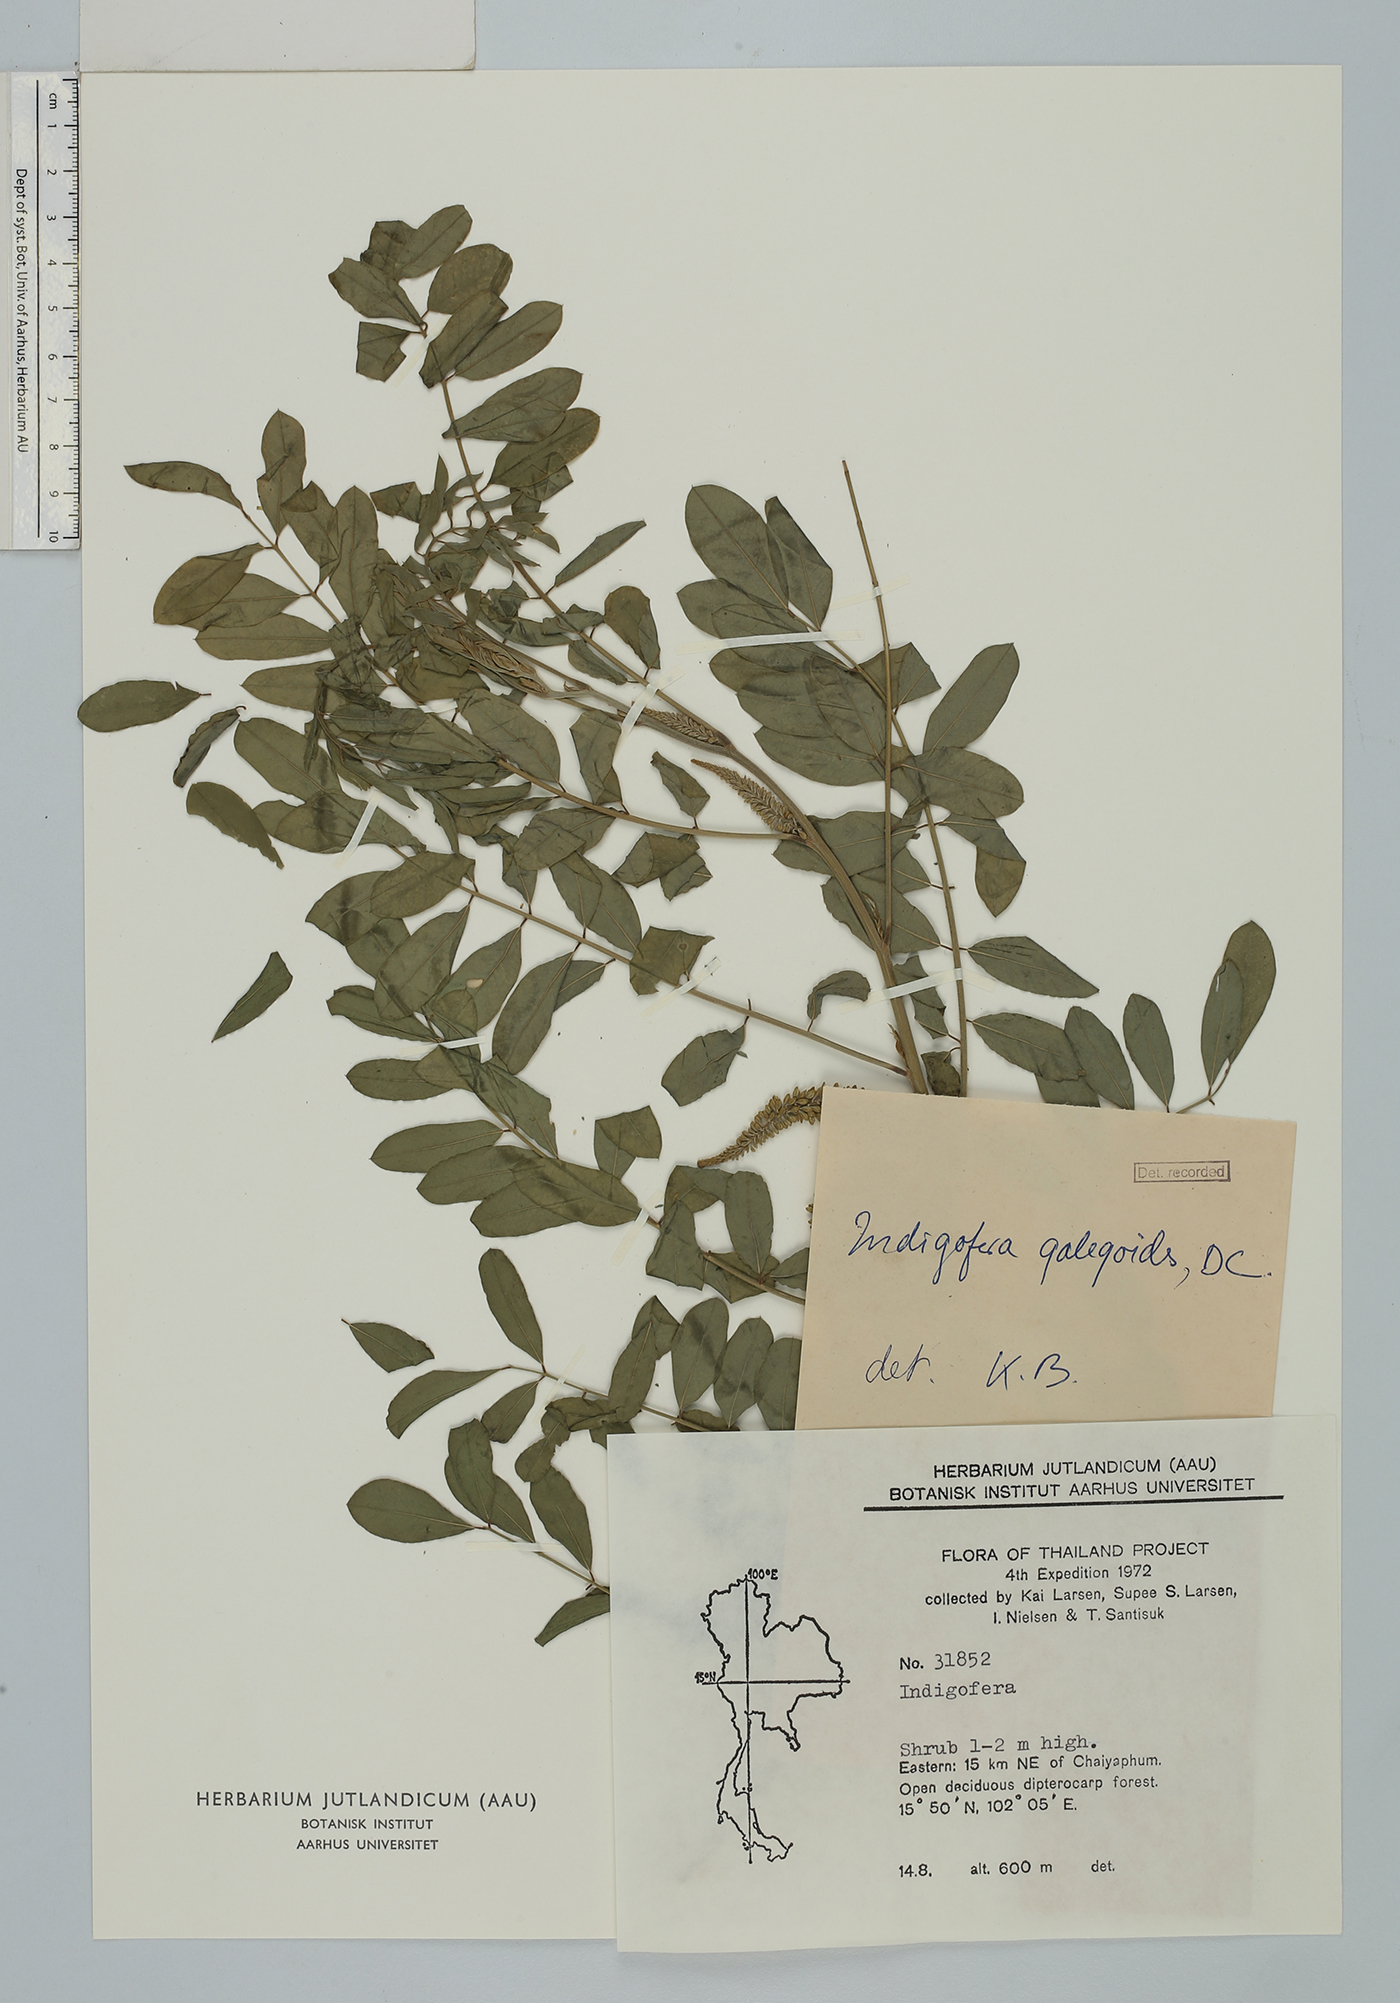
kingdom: Plantae
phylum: Tracheophyta
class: Magnoliopsida
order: Fabales
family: Fabaceae
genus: Indigofera
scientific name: Indigofera galegoides
